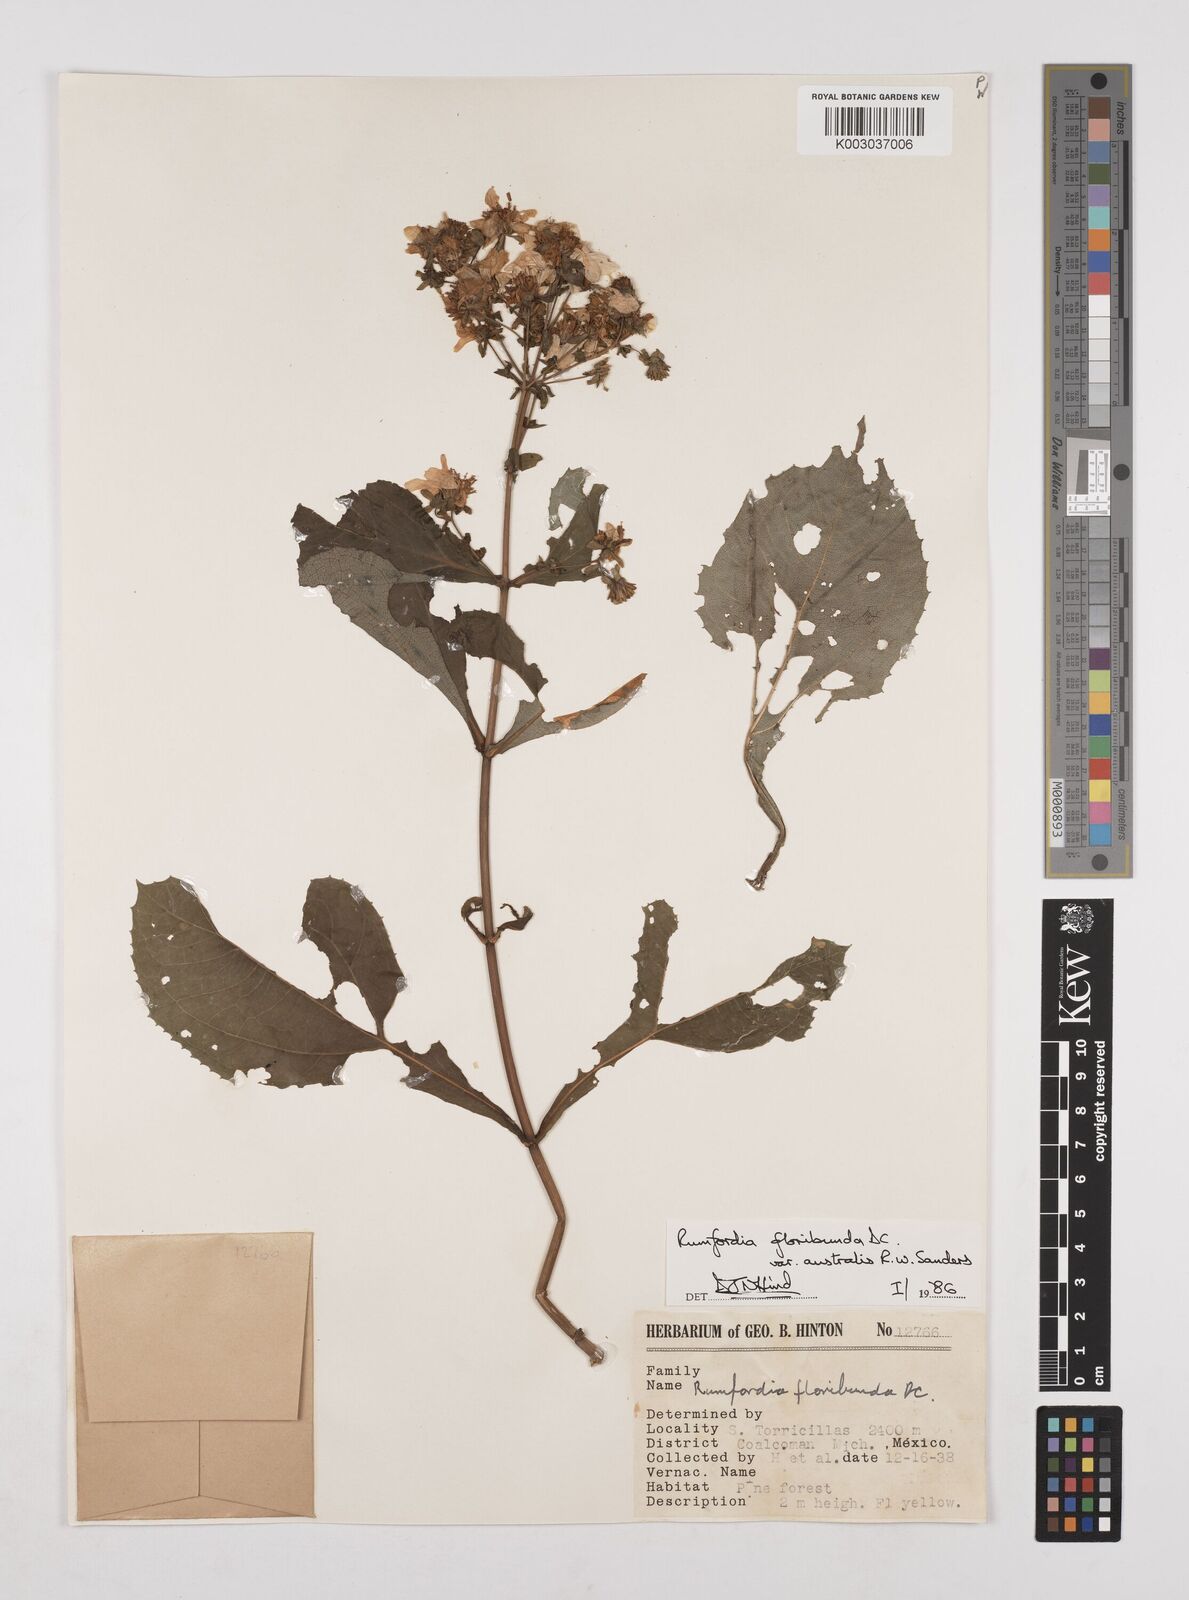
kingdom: Plantae
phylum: Tracheophyta
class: Magnoliopsida
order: Asterales
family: Asteraceae
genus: Rumfordia
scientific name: Rumfordia floribunda
